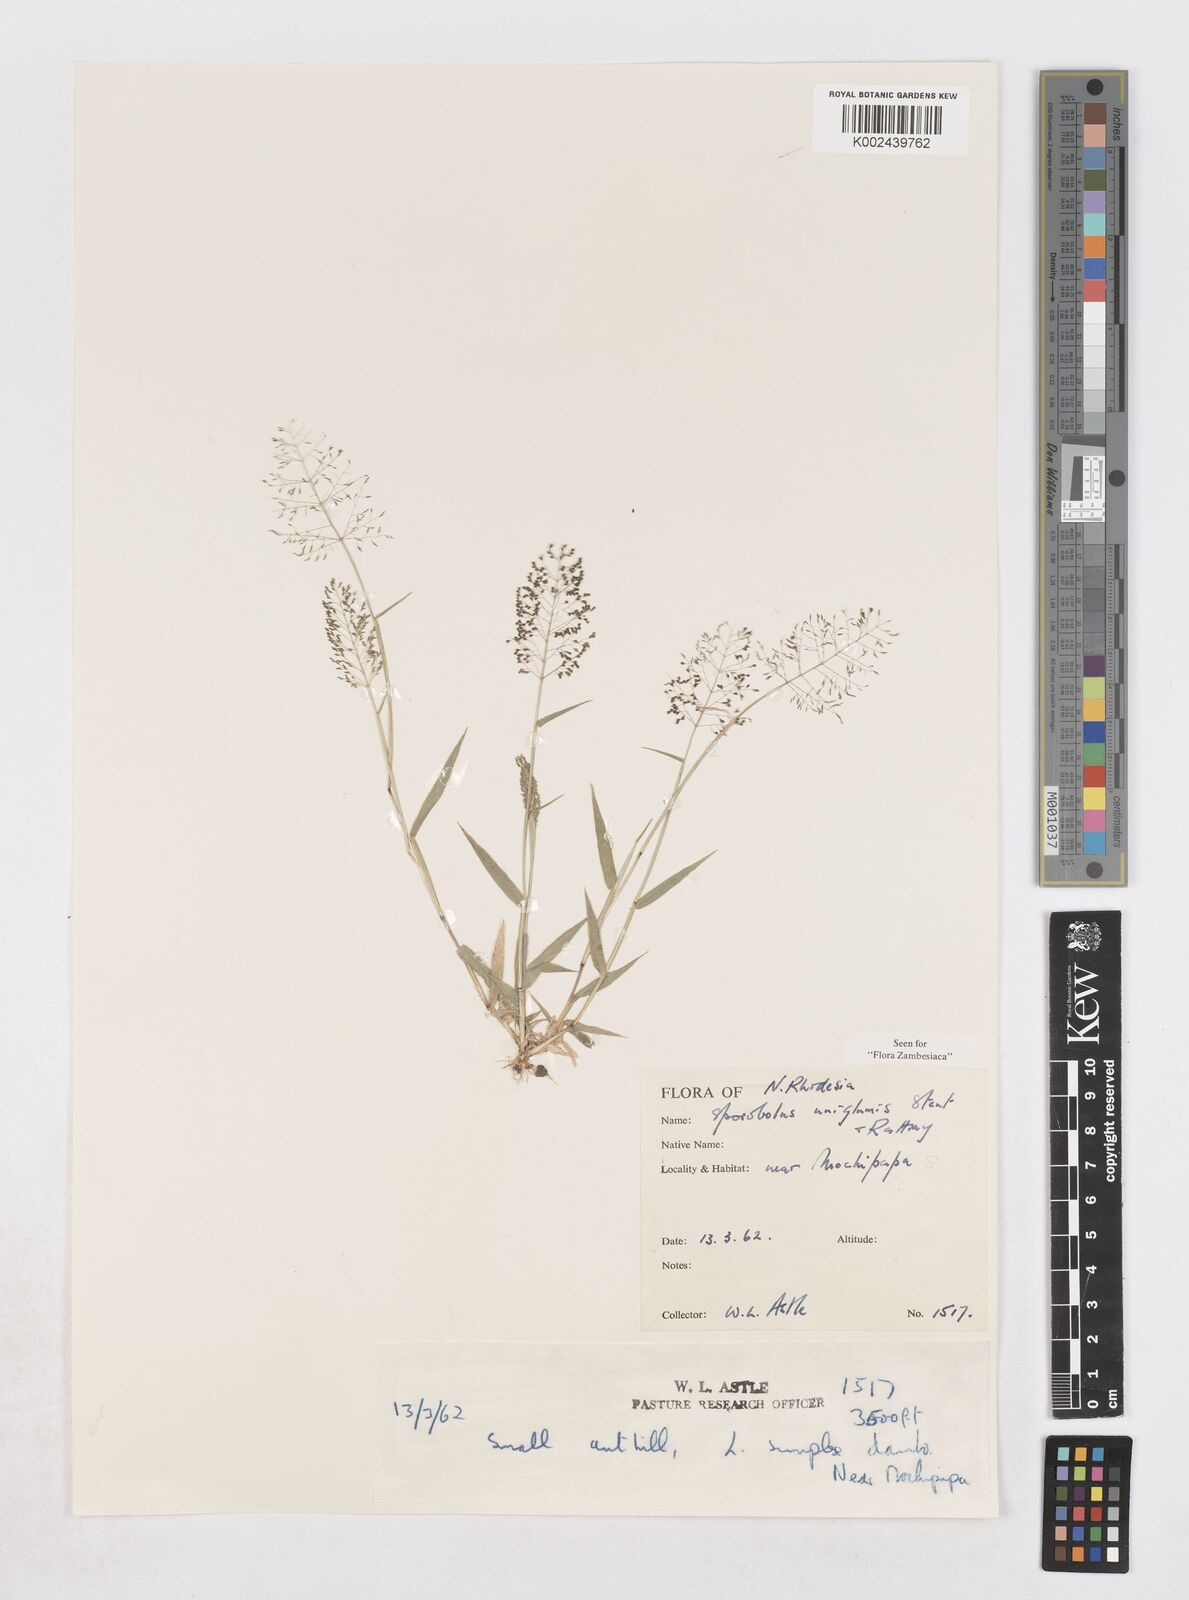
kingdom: Plantae
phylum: Tracheophyta
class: Liliopsida
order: Poales
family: Poaceae
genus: Sporobolus
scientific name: Sporobolus uniglumis
